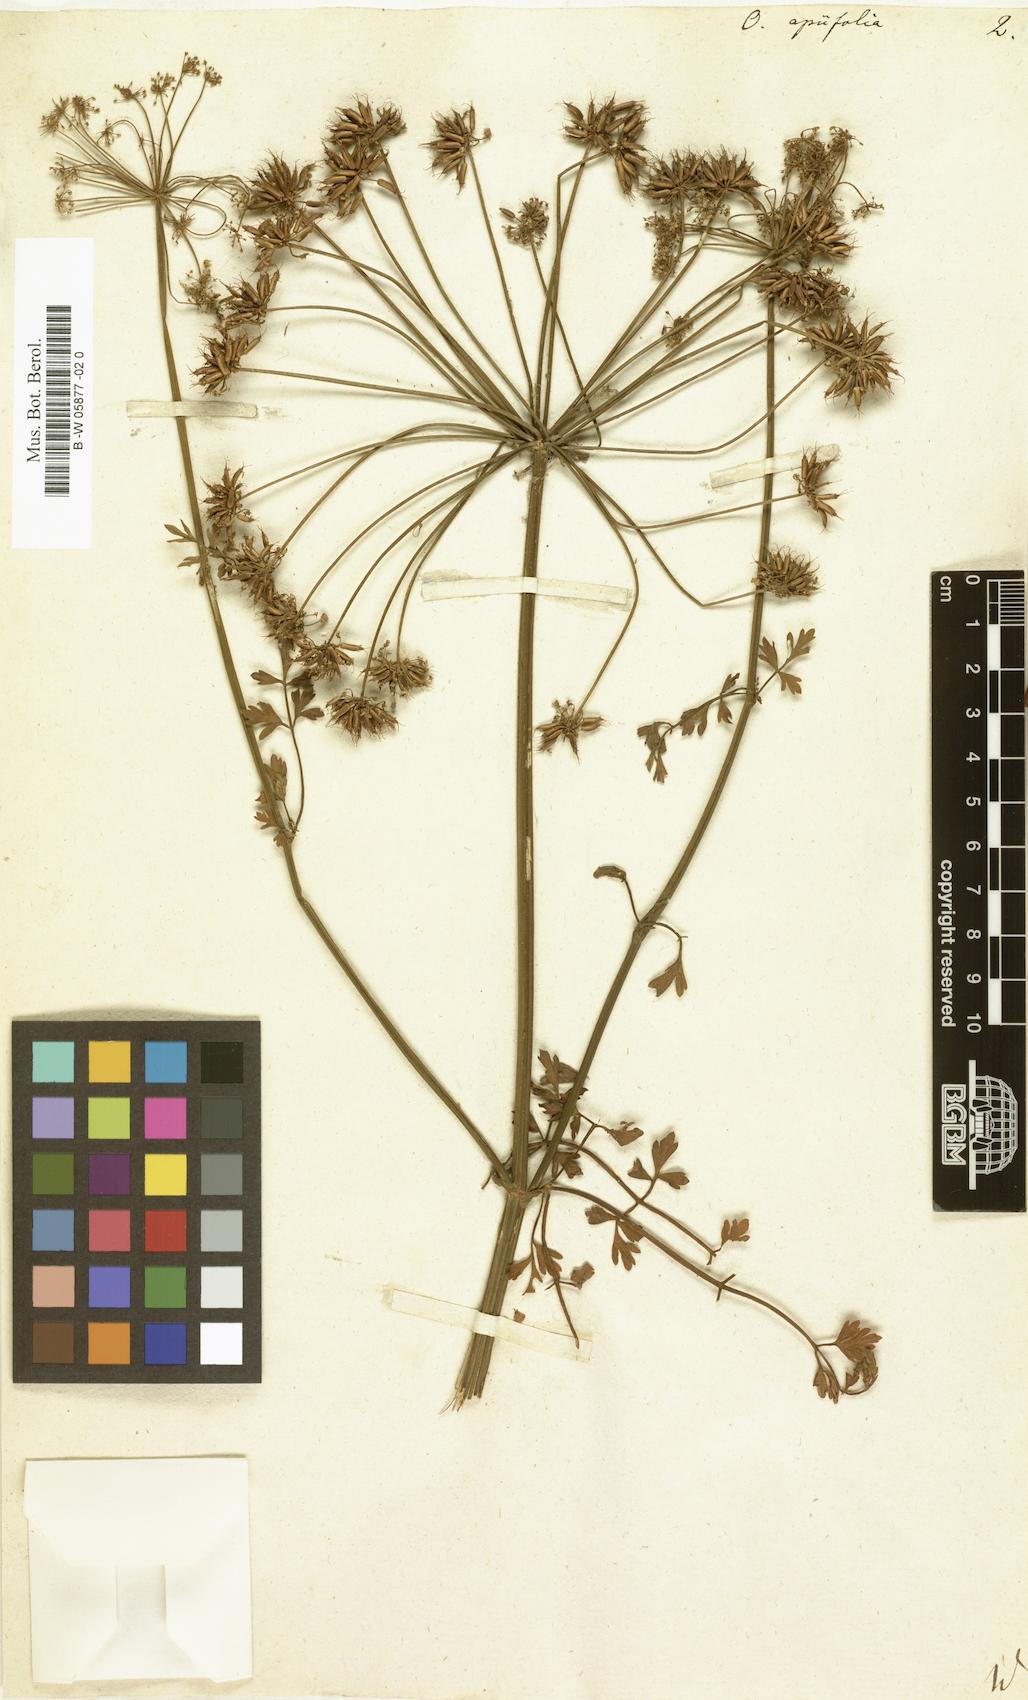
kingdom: Plantae
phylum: Tracheophyta
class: Magnoliopsida
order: Apiales
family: Apiaceae
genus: Oenanthe
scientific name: Oenanthe crocata
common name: Hemlock water-dropwort
